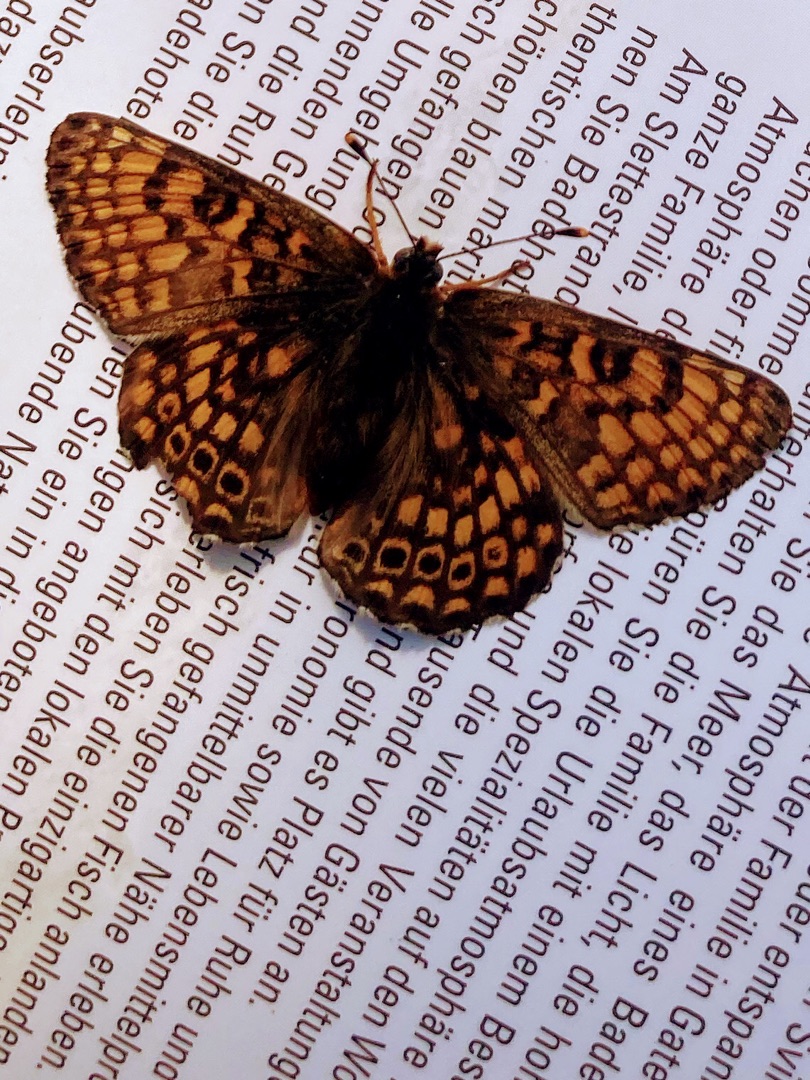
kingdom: Animalia
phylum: Arthropoda
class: Insecta
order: Lepidoptera
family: Nymphalidae
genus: Melitaea
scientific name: Melitaea cinxia
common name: Okkergul pletvinge
